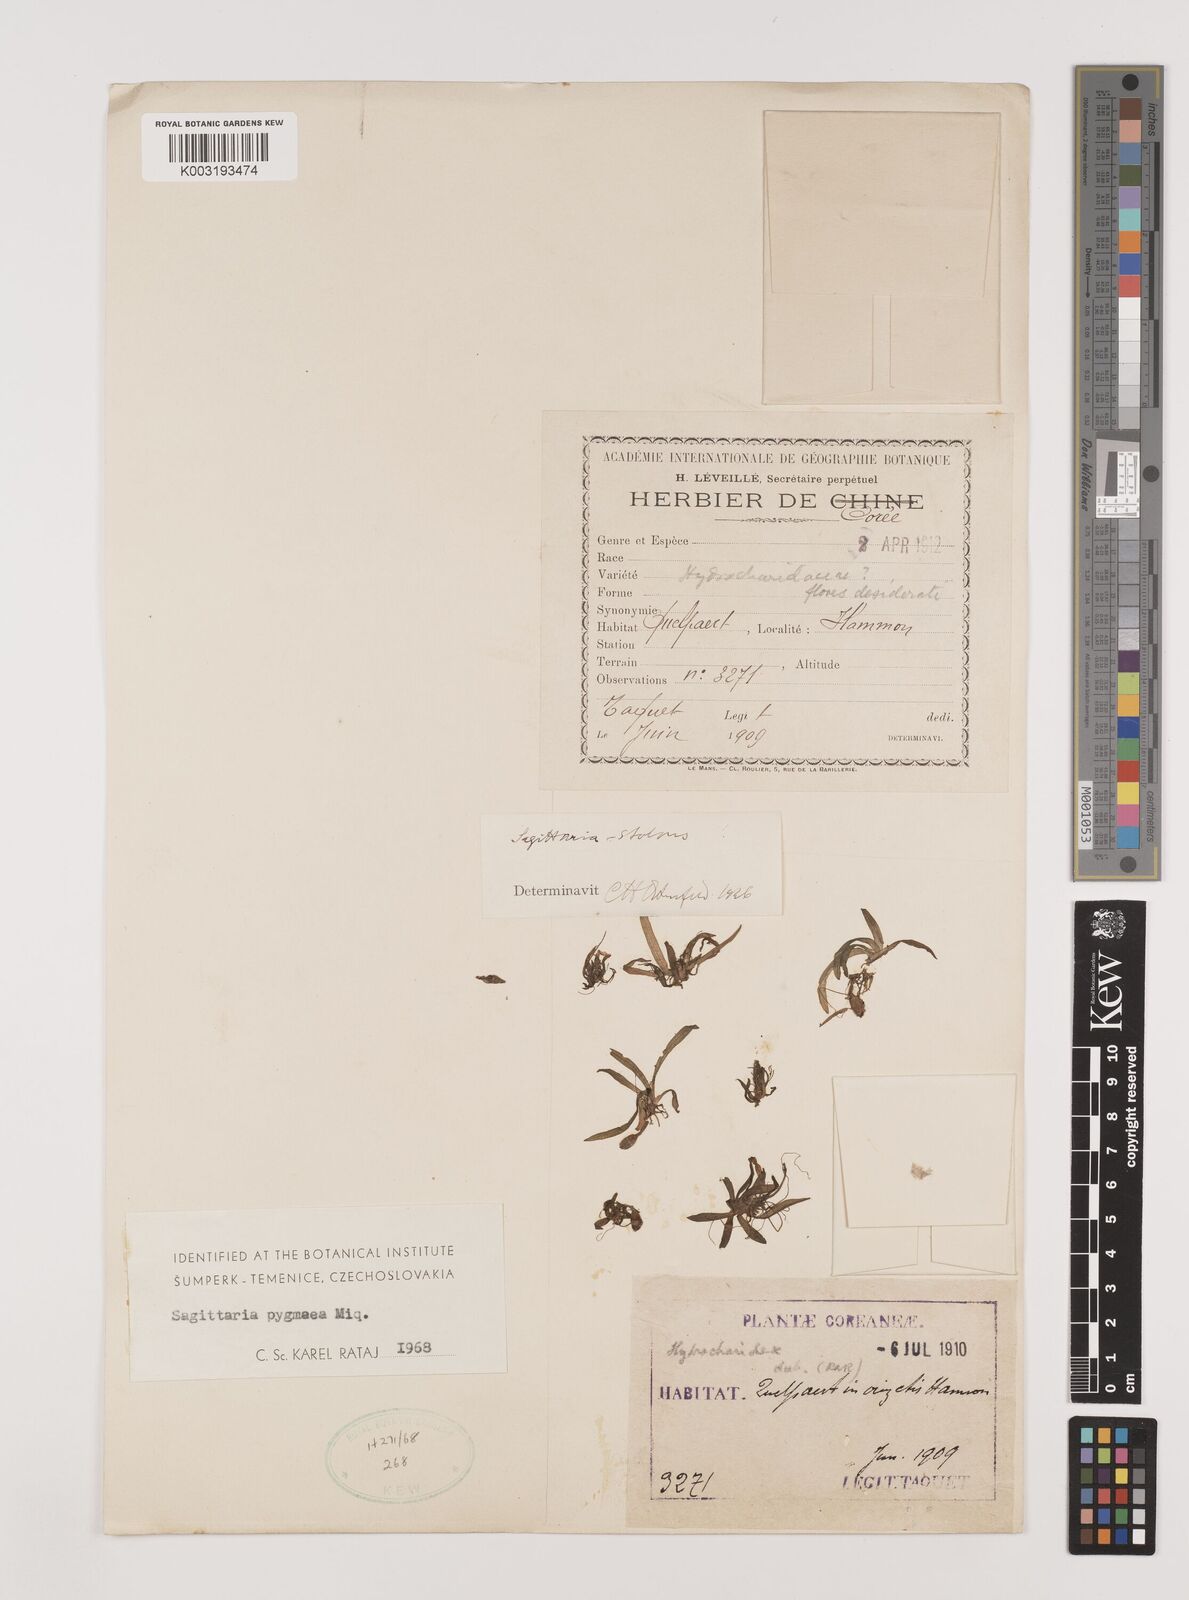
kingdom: Plantae
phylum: Tracheophyta
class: Liliopsida
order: Alismatales
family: Alismataceae
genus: Sagittaria
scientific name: Sagittaria pygmaea
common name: Pygmy arrowhead
